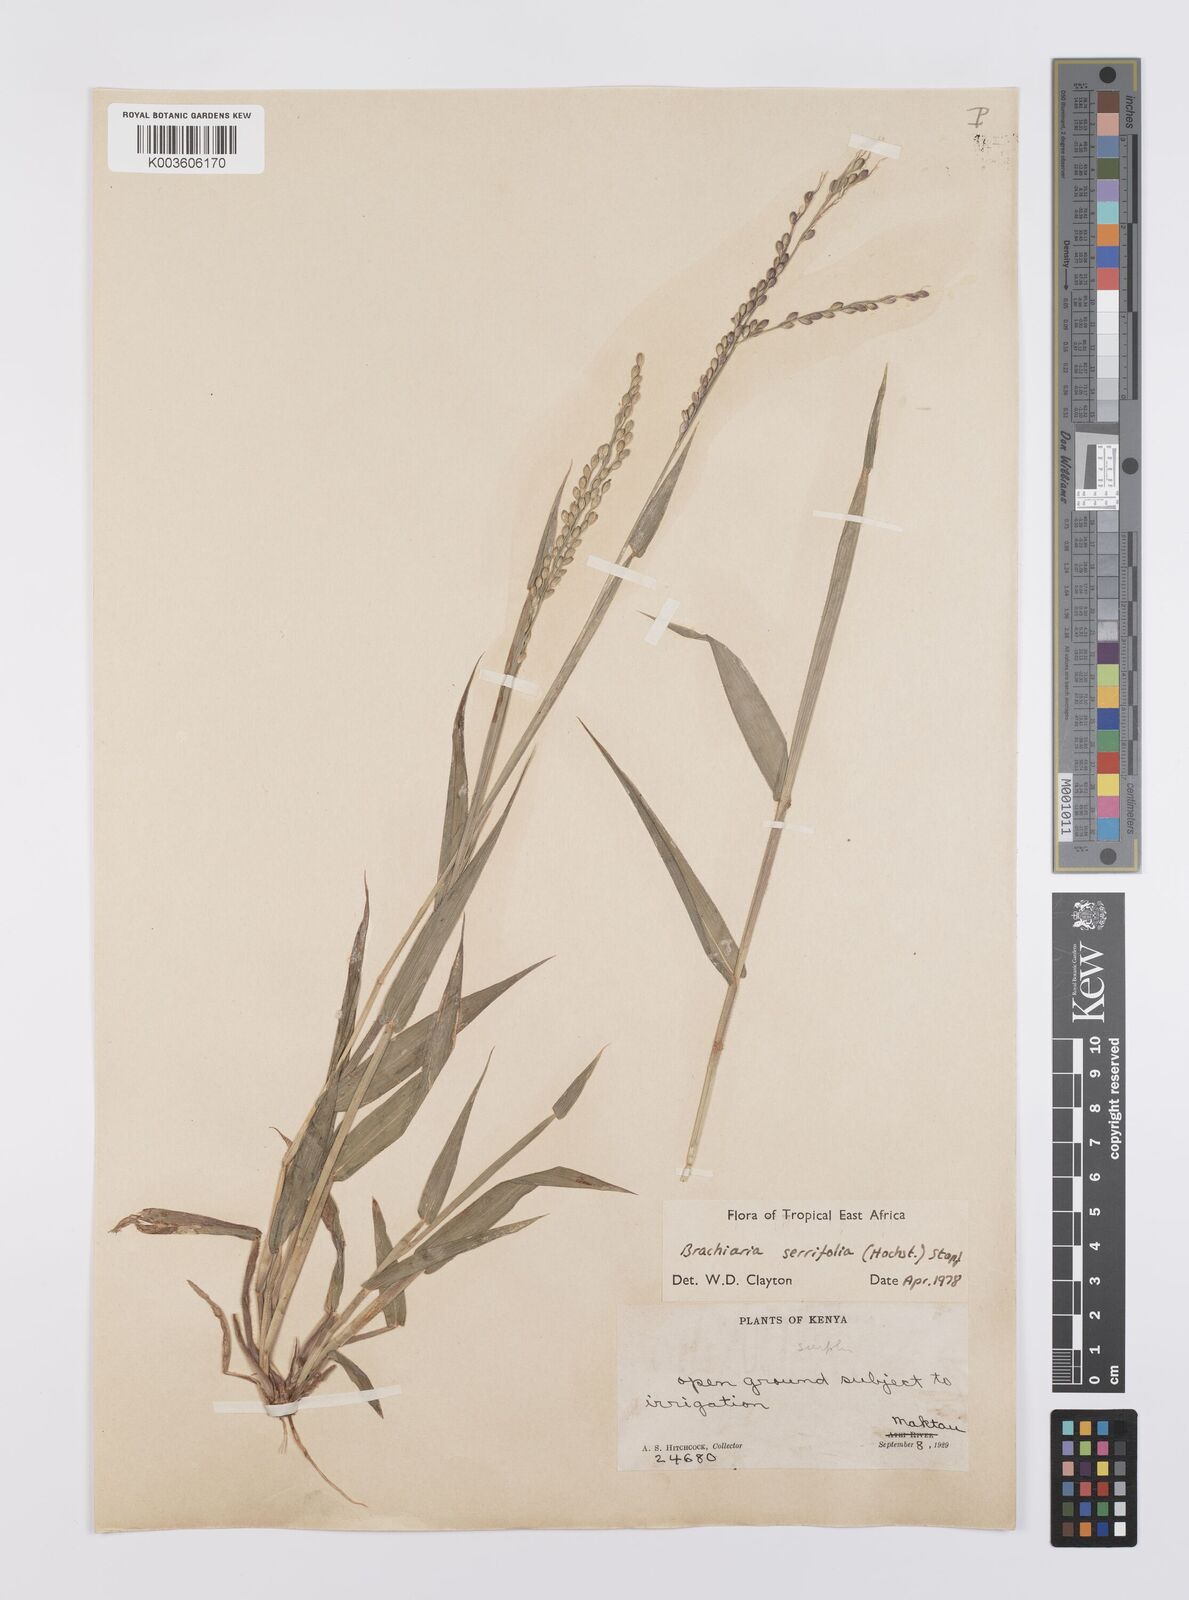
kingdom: Plantae
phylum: Tracheophyta
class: Liliopsida
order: Poales
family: Poaceae
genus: Urochloa
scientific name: Urochloa serrifolia
